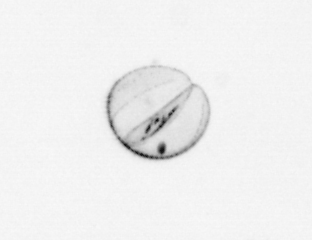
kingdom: Chromista
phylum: Ochrophyta
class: Bacillariophyceae
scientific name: Bacillariophyceae
